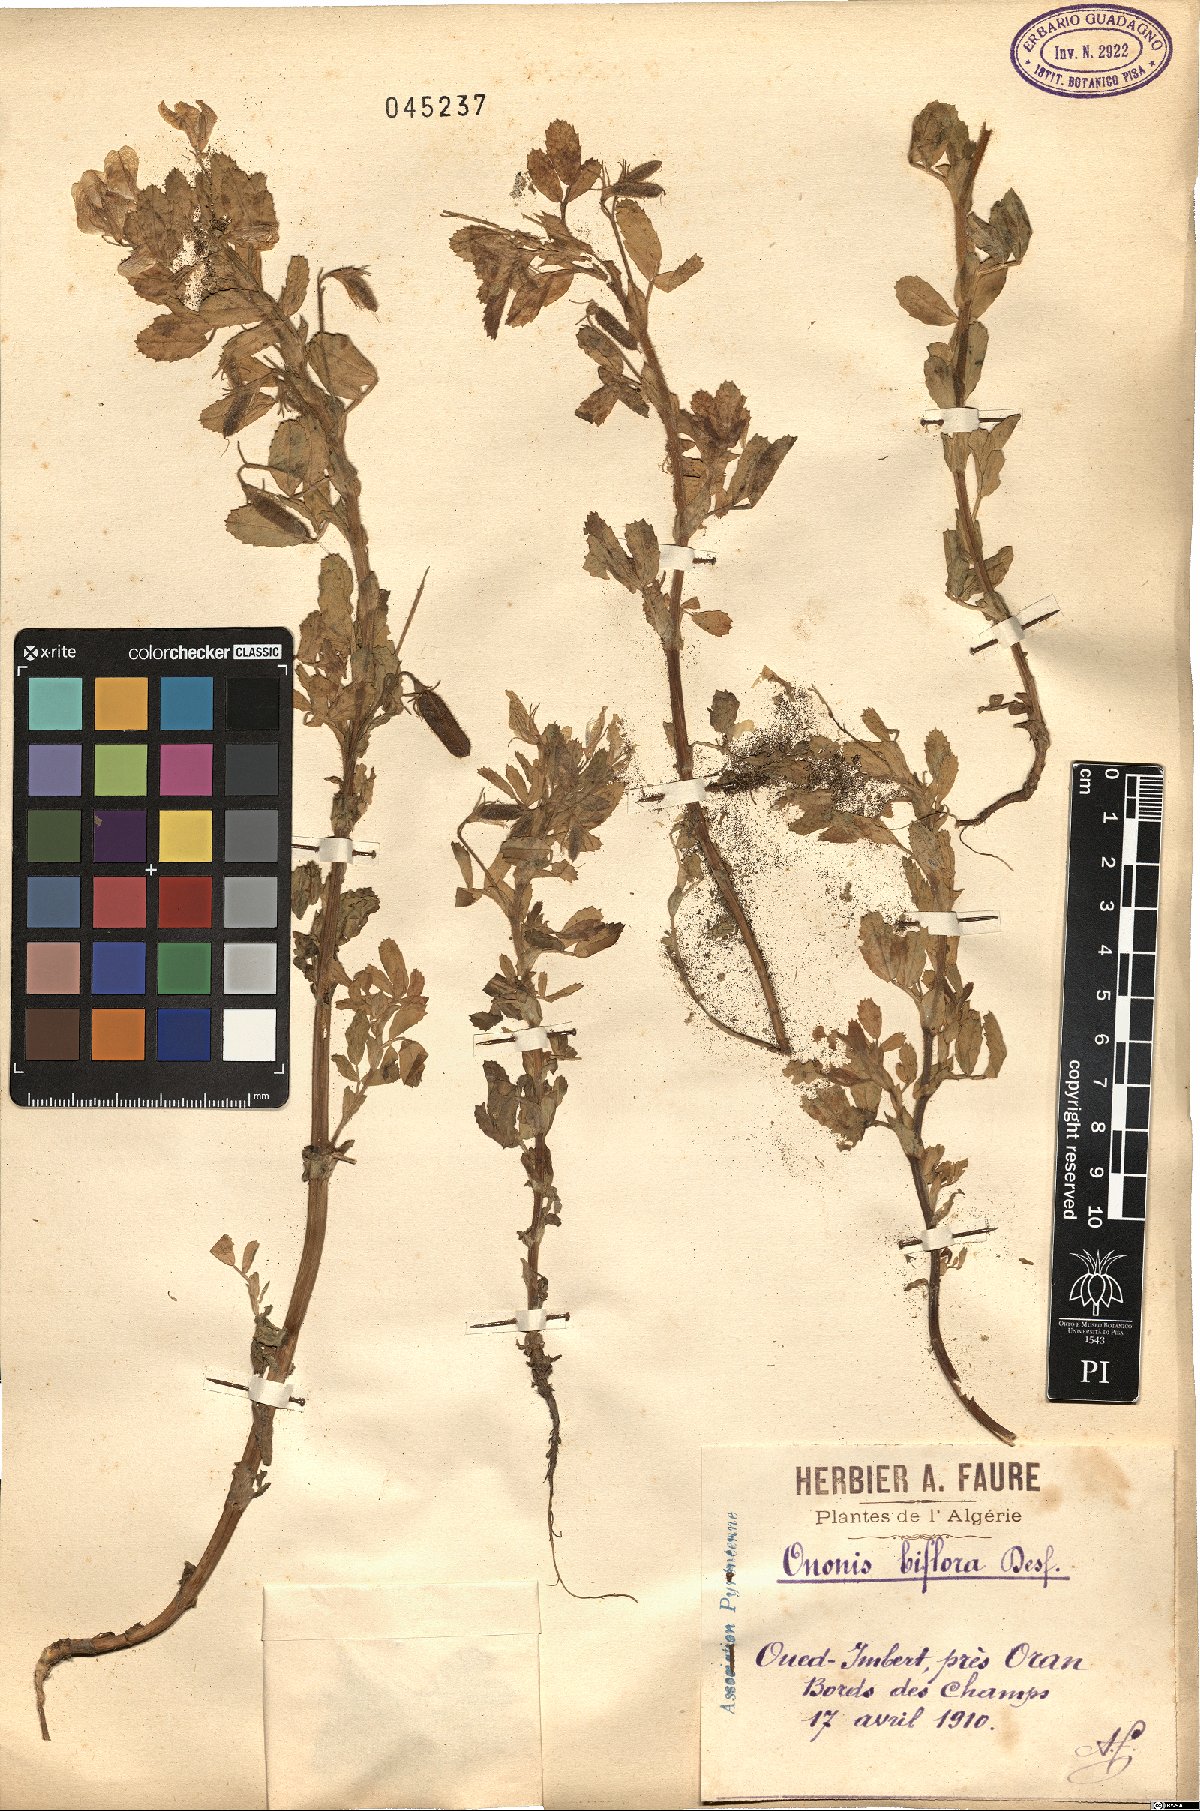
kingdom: Plantae
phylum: Tracheophyta
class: Magnoliopsida
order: Fabales
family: Fabaceae
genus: Ononis
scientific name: Ononis biflora
